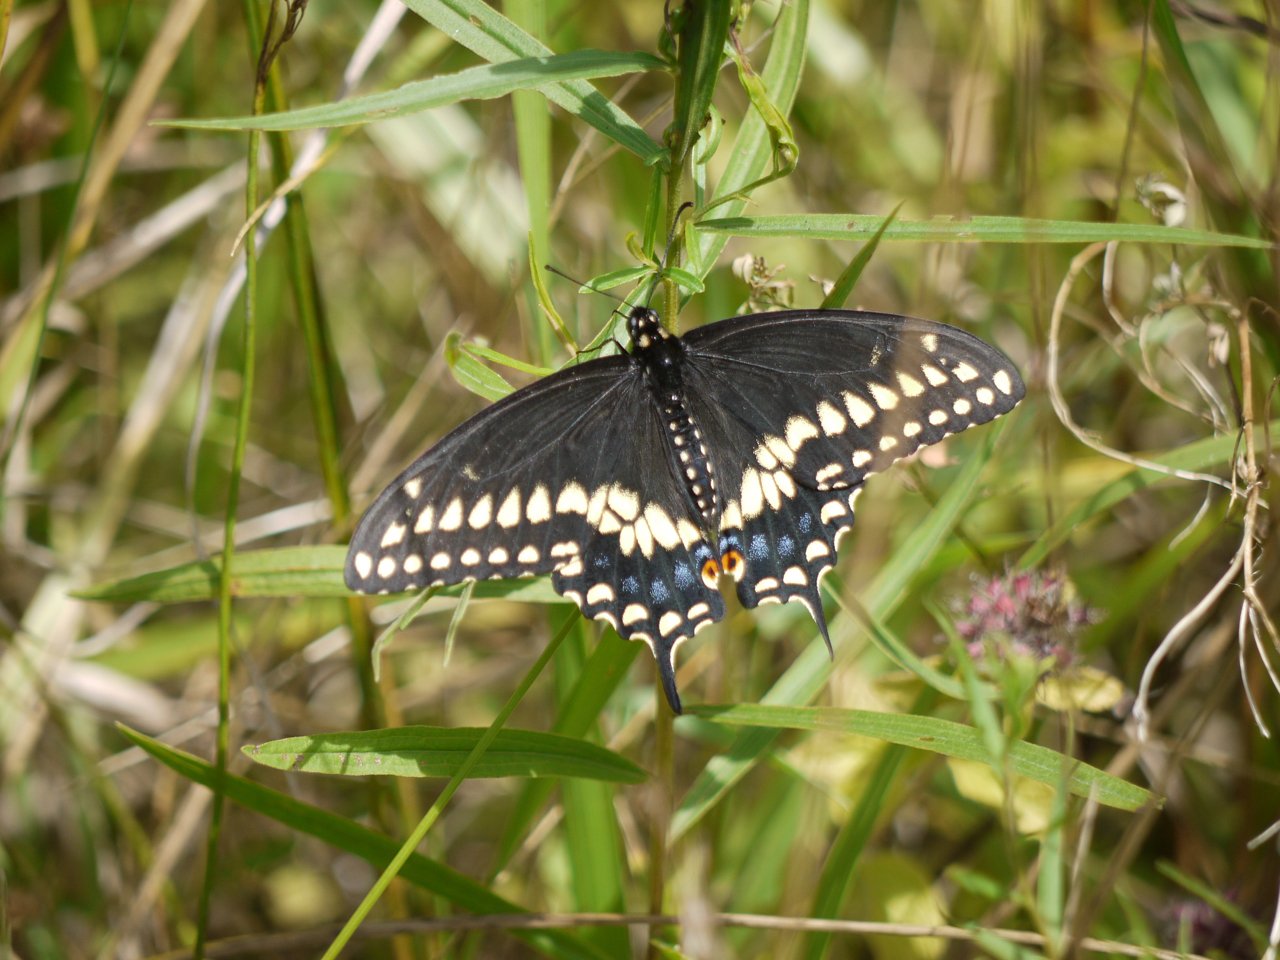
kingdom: Animalia
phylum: Arthropoda
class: Insecta
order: Lepidoptera
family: Papilionidae
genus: Papilio
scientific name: Papilio polyxenes
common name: Black Swallowtail
